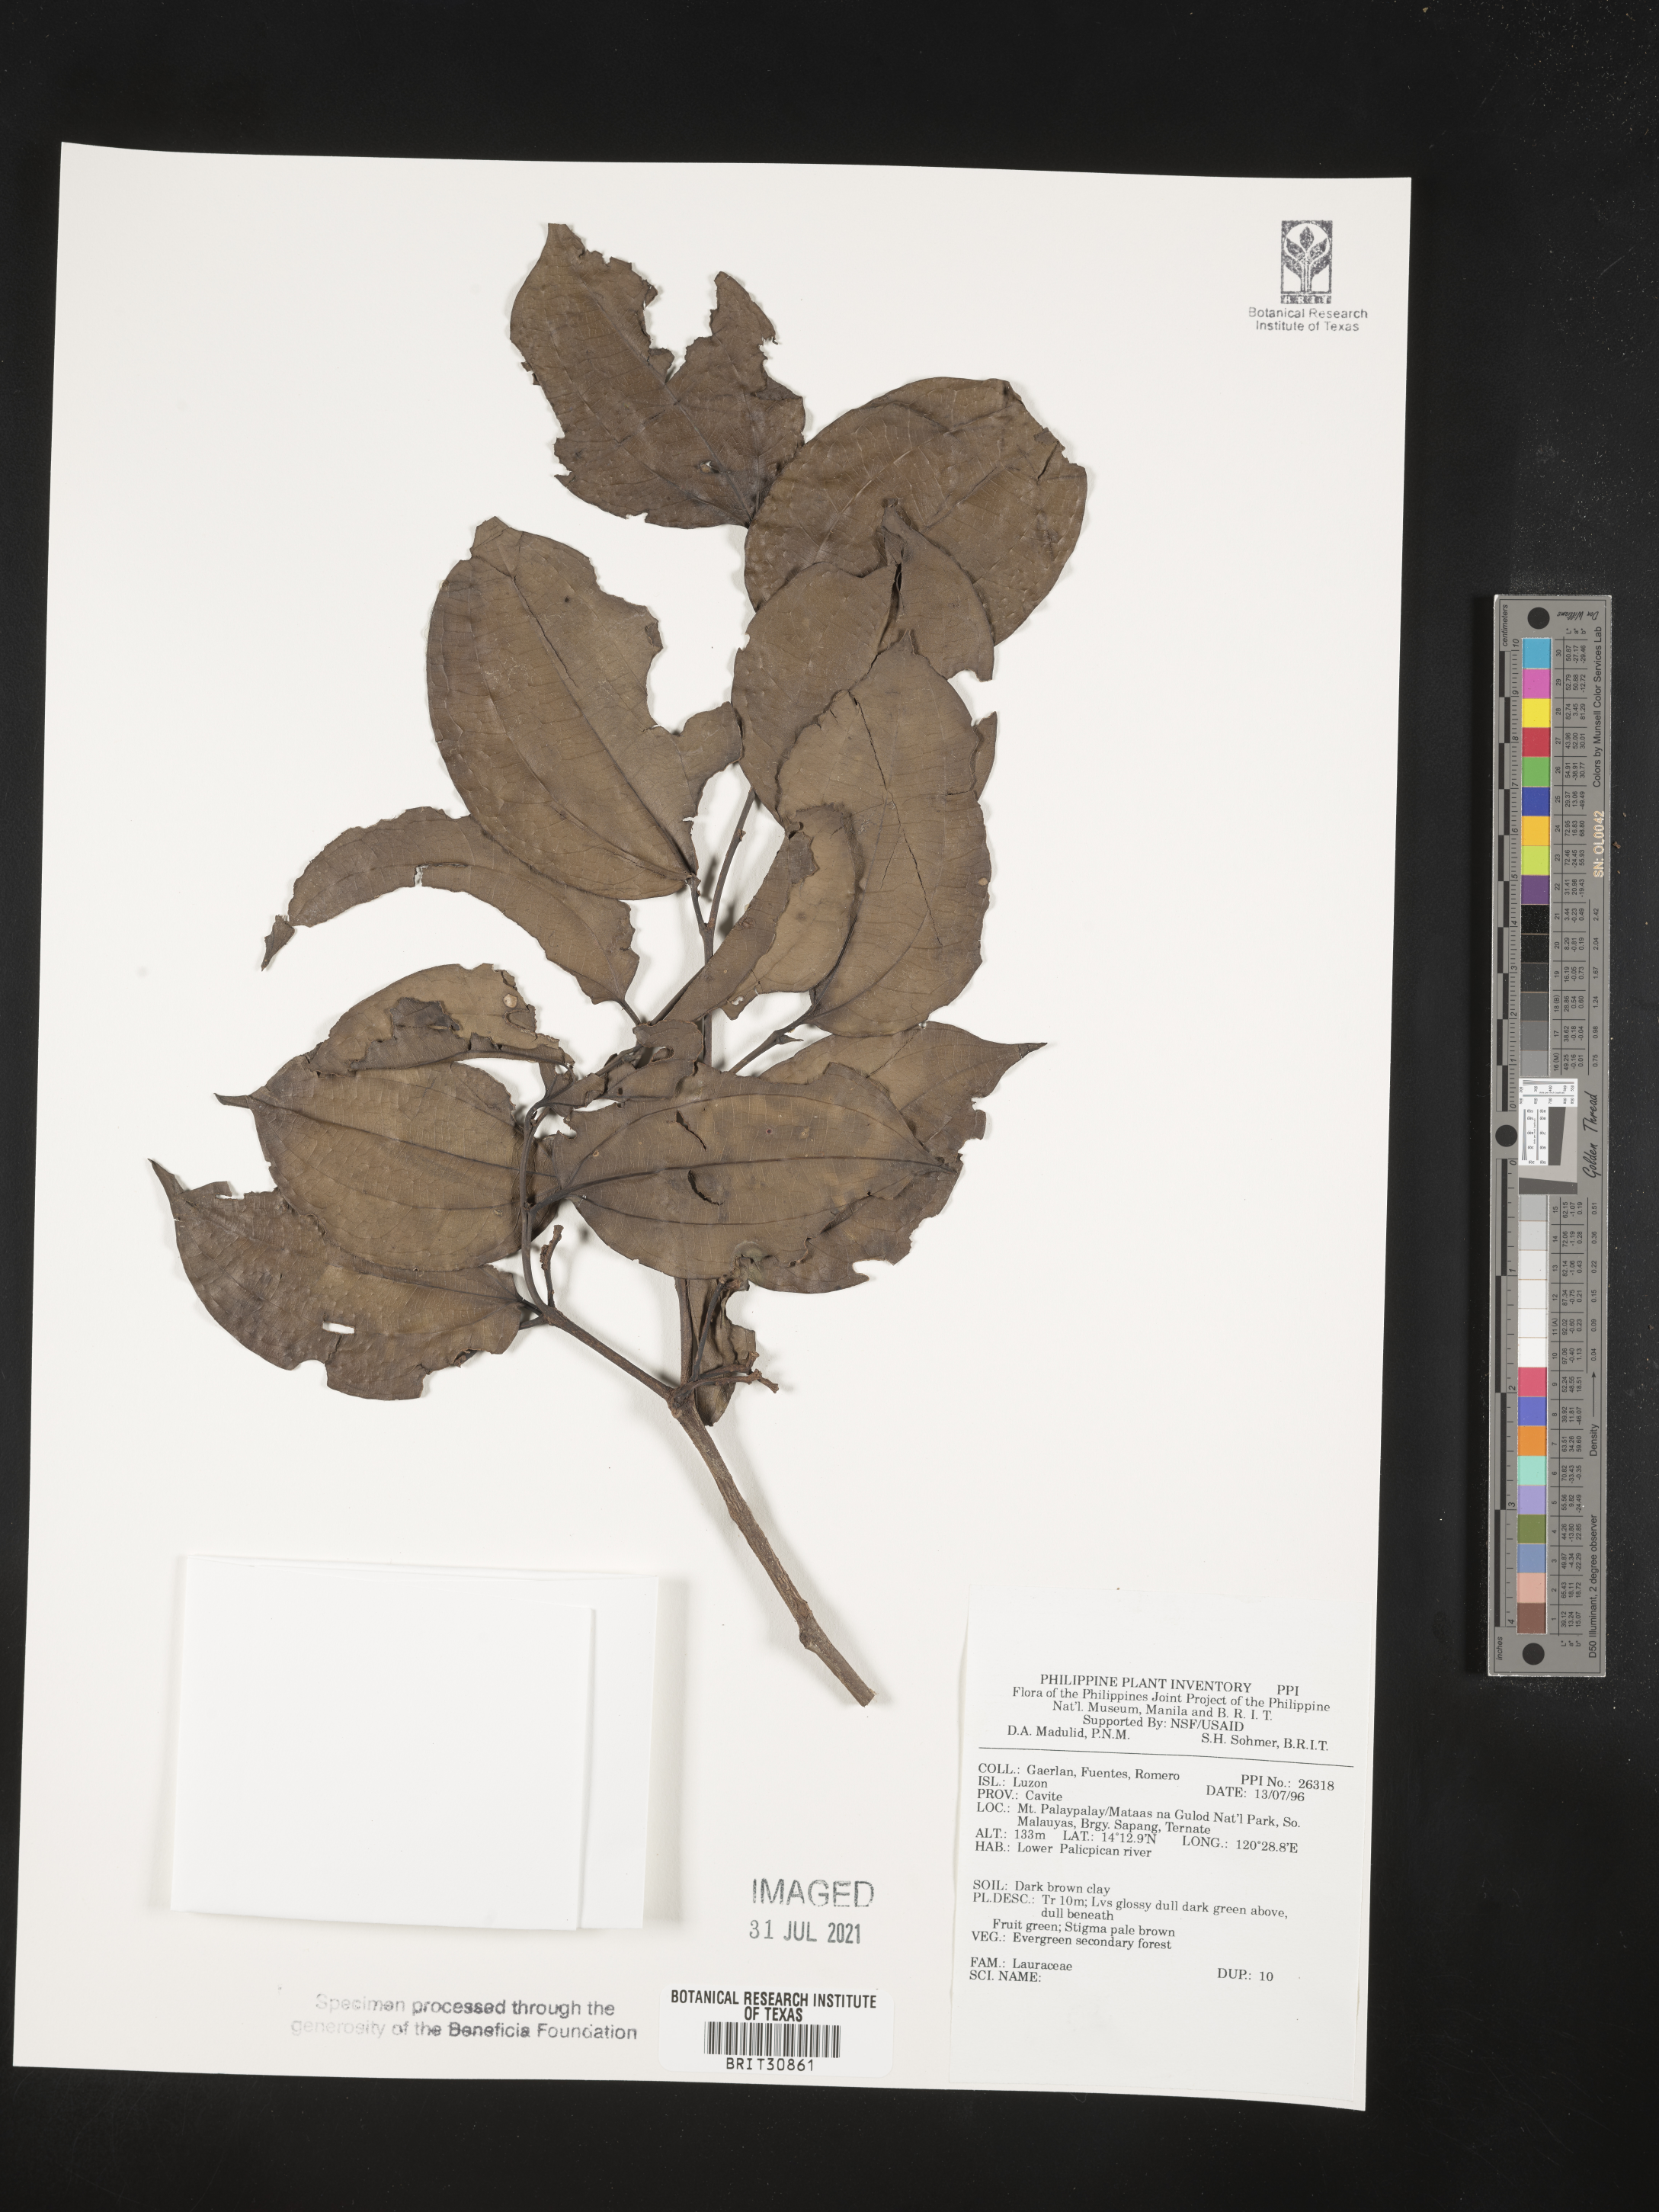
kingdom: Plantae
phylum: Tracheophyta
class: Magnoliopsida
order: Laurales
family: Lauraceae
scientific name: Lauraceae
